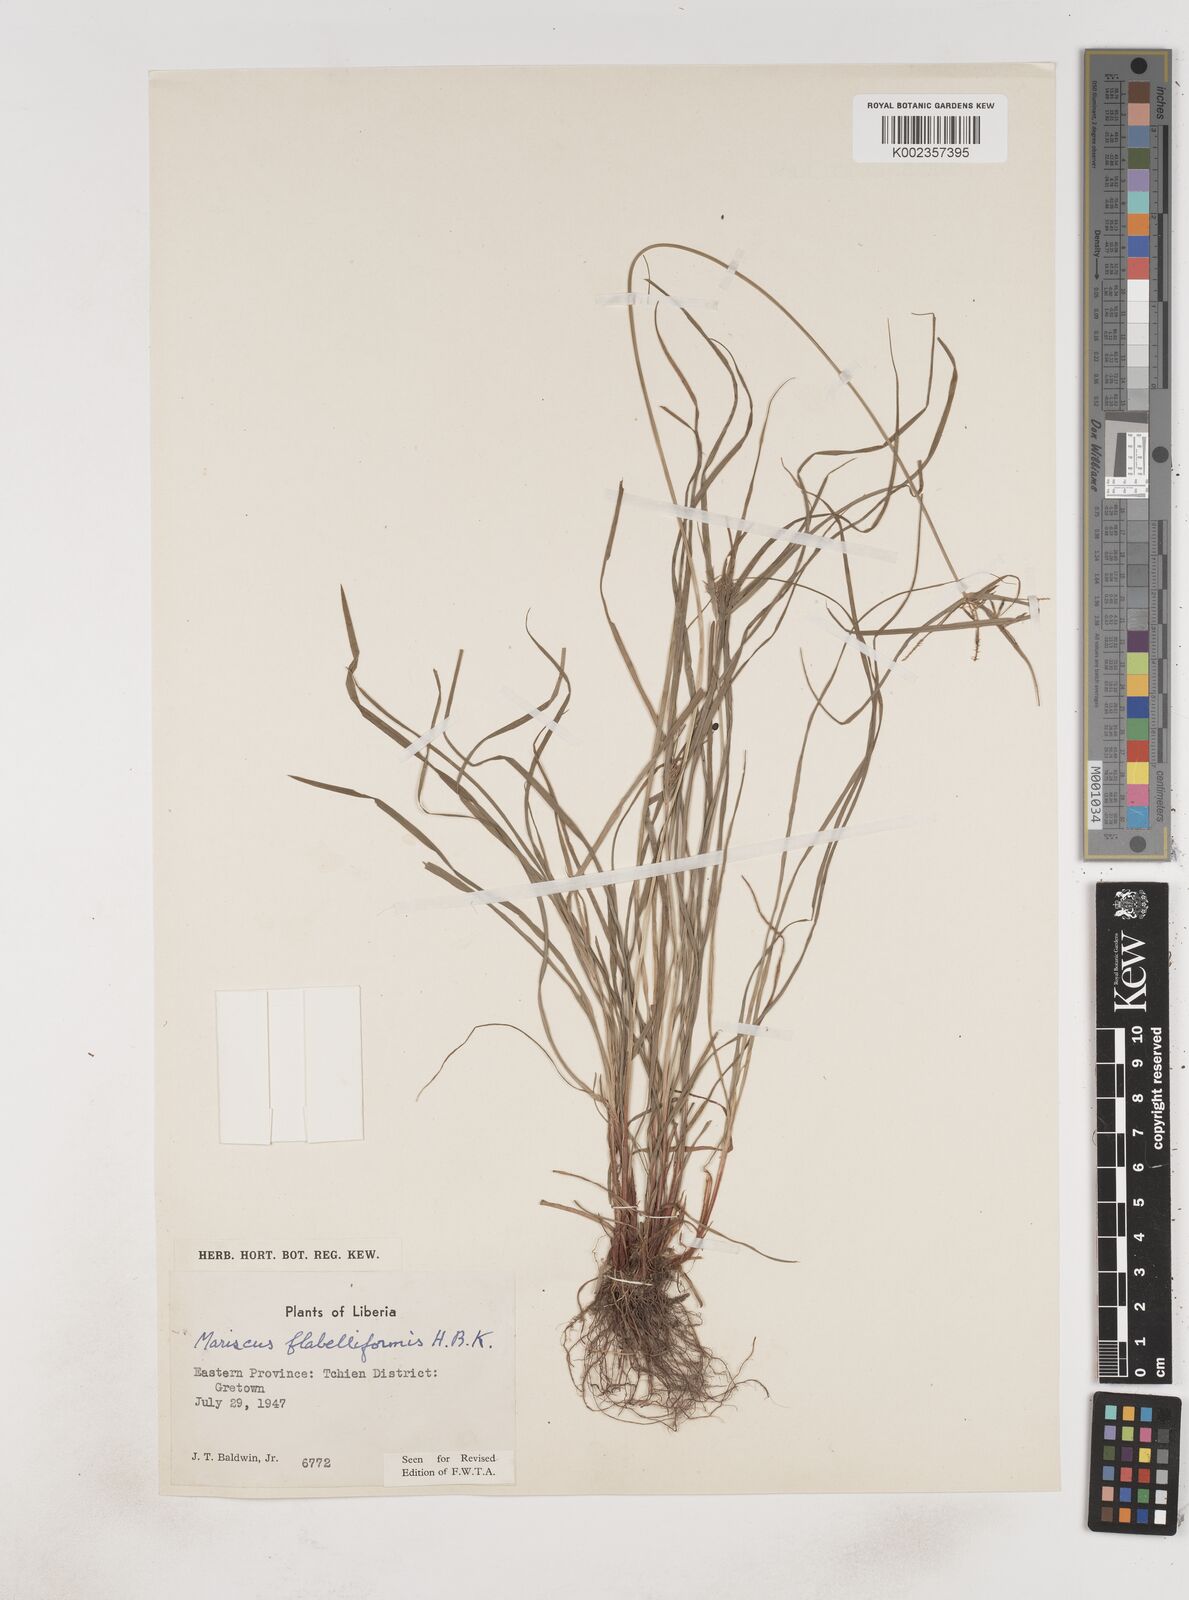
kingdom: Plantae
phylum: Tracheophyta
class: Liliopsida
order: Poales
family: Cyperaceae
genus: Cyperus
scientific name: Cyperus tenuis
